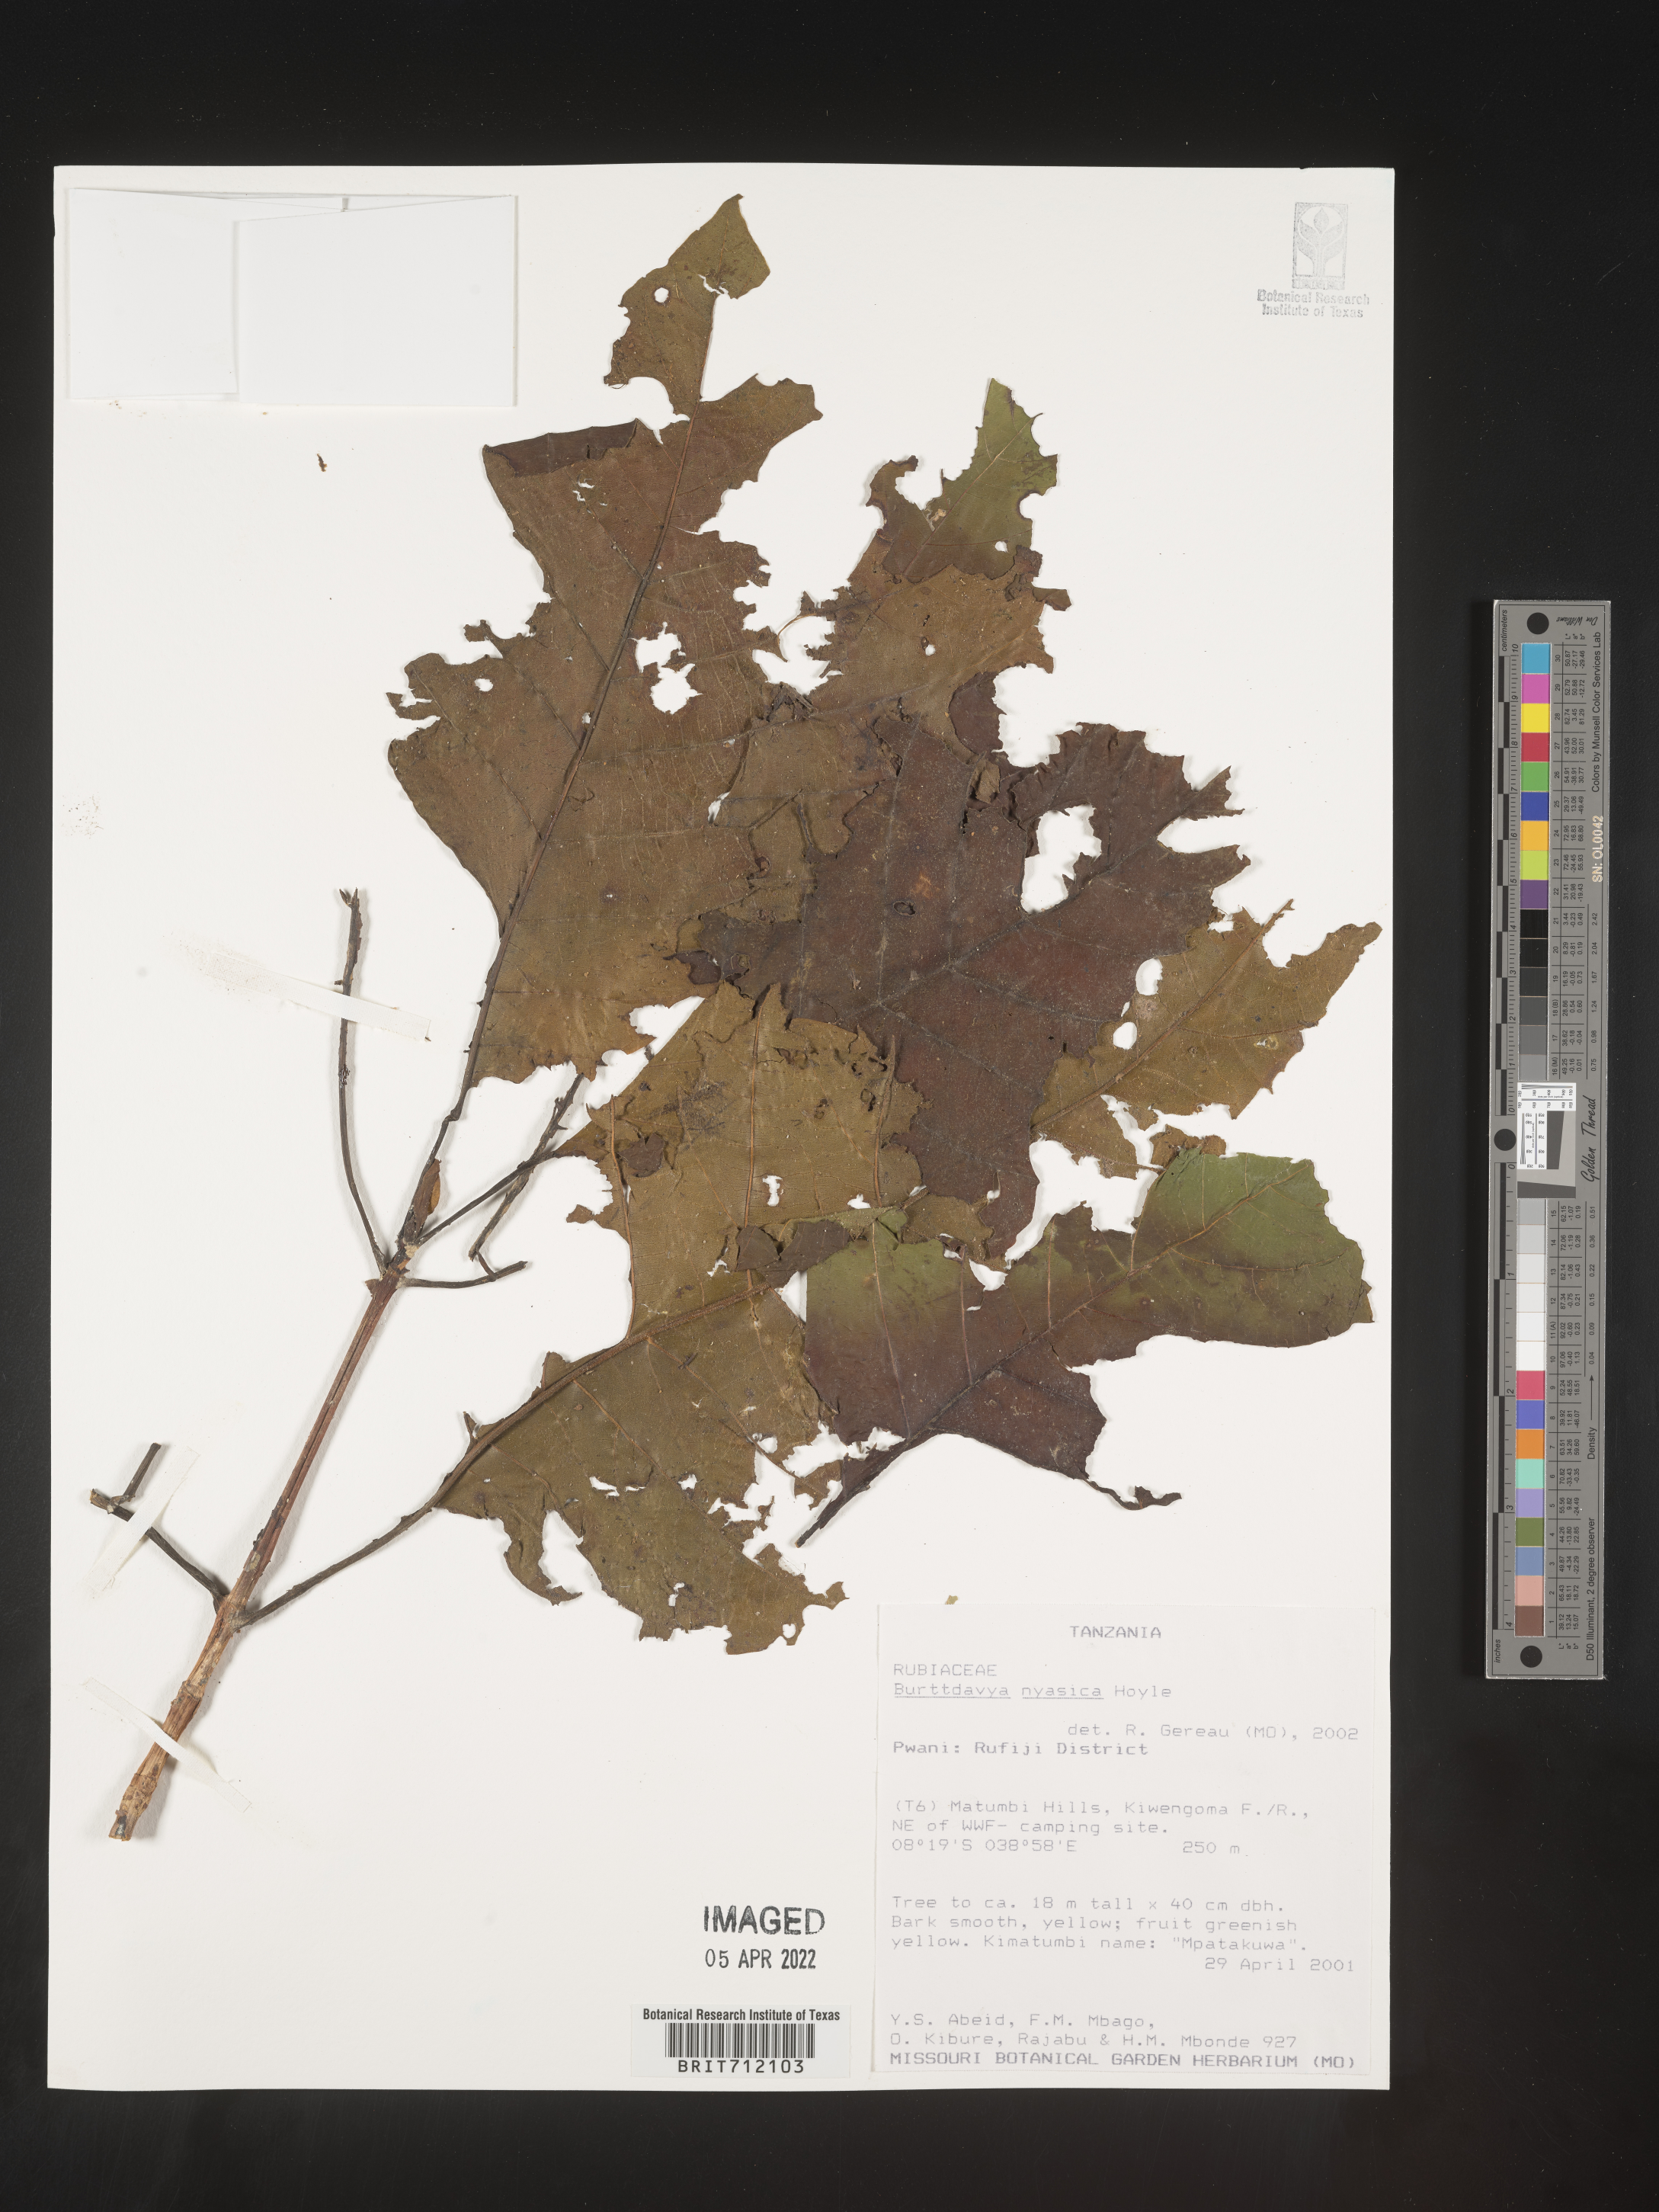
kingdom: Plantae
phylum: Tracheophyta
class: Magnoliopsida
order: Gentianales
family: Rubiaceae
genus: Nauclea
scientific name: Nauclea
